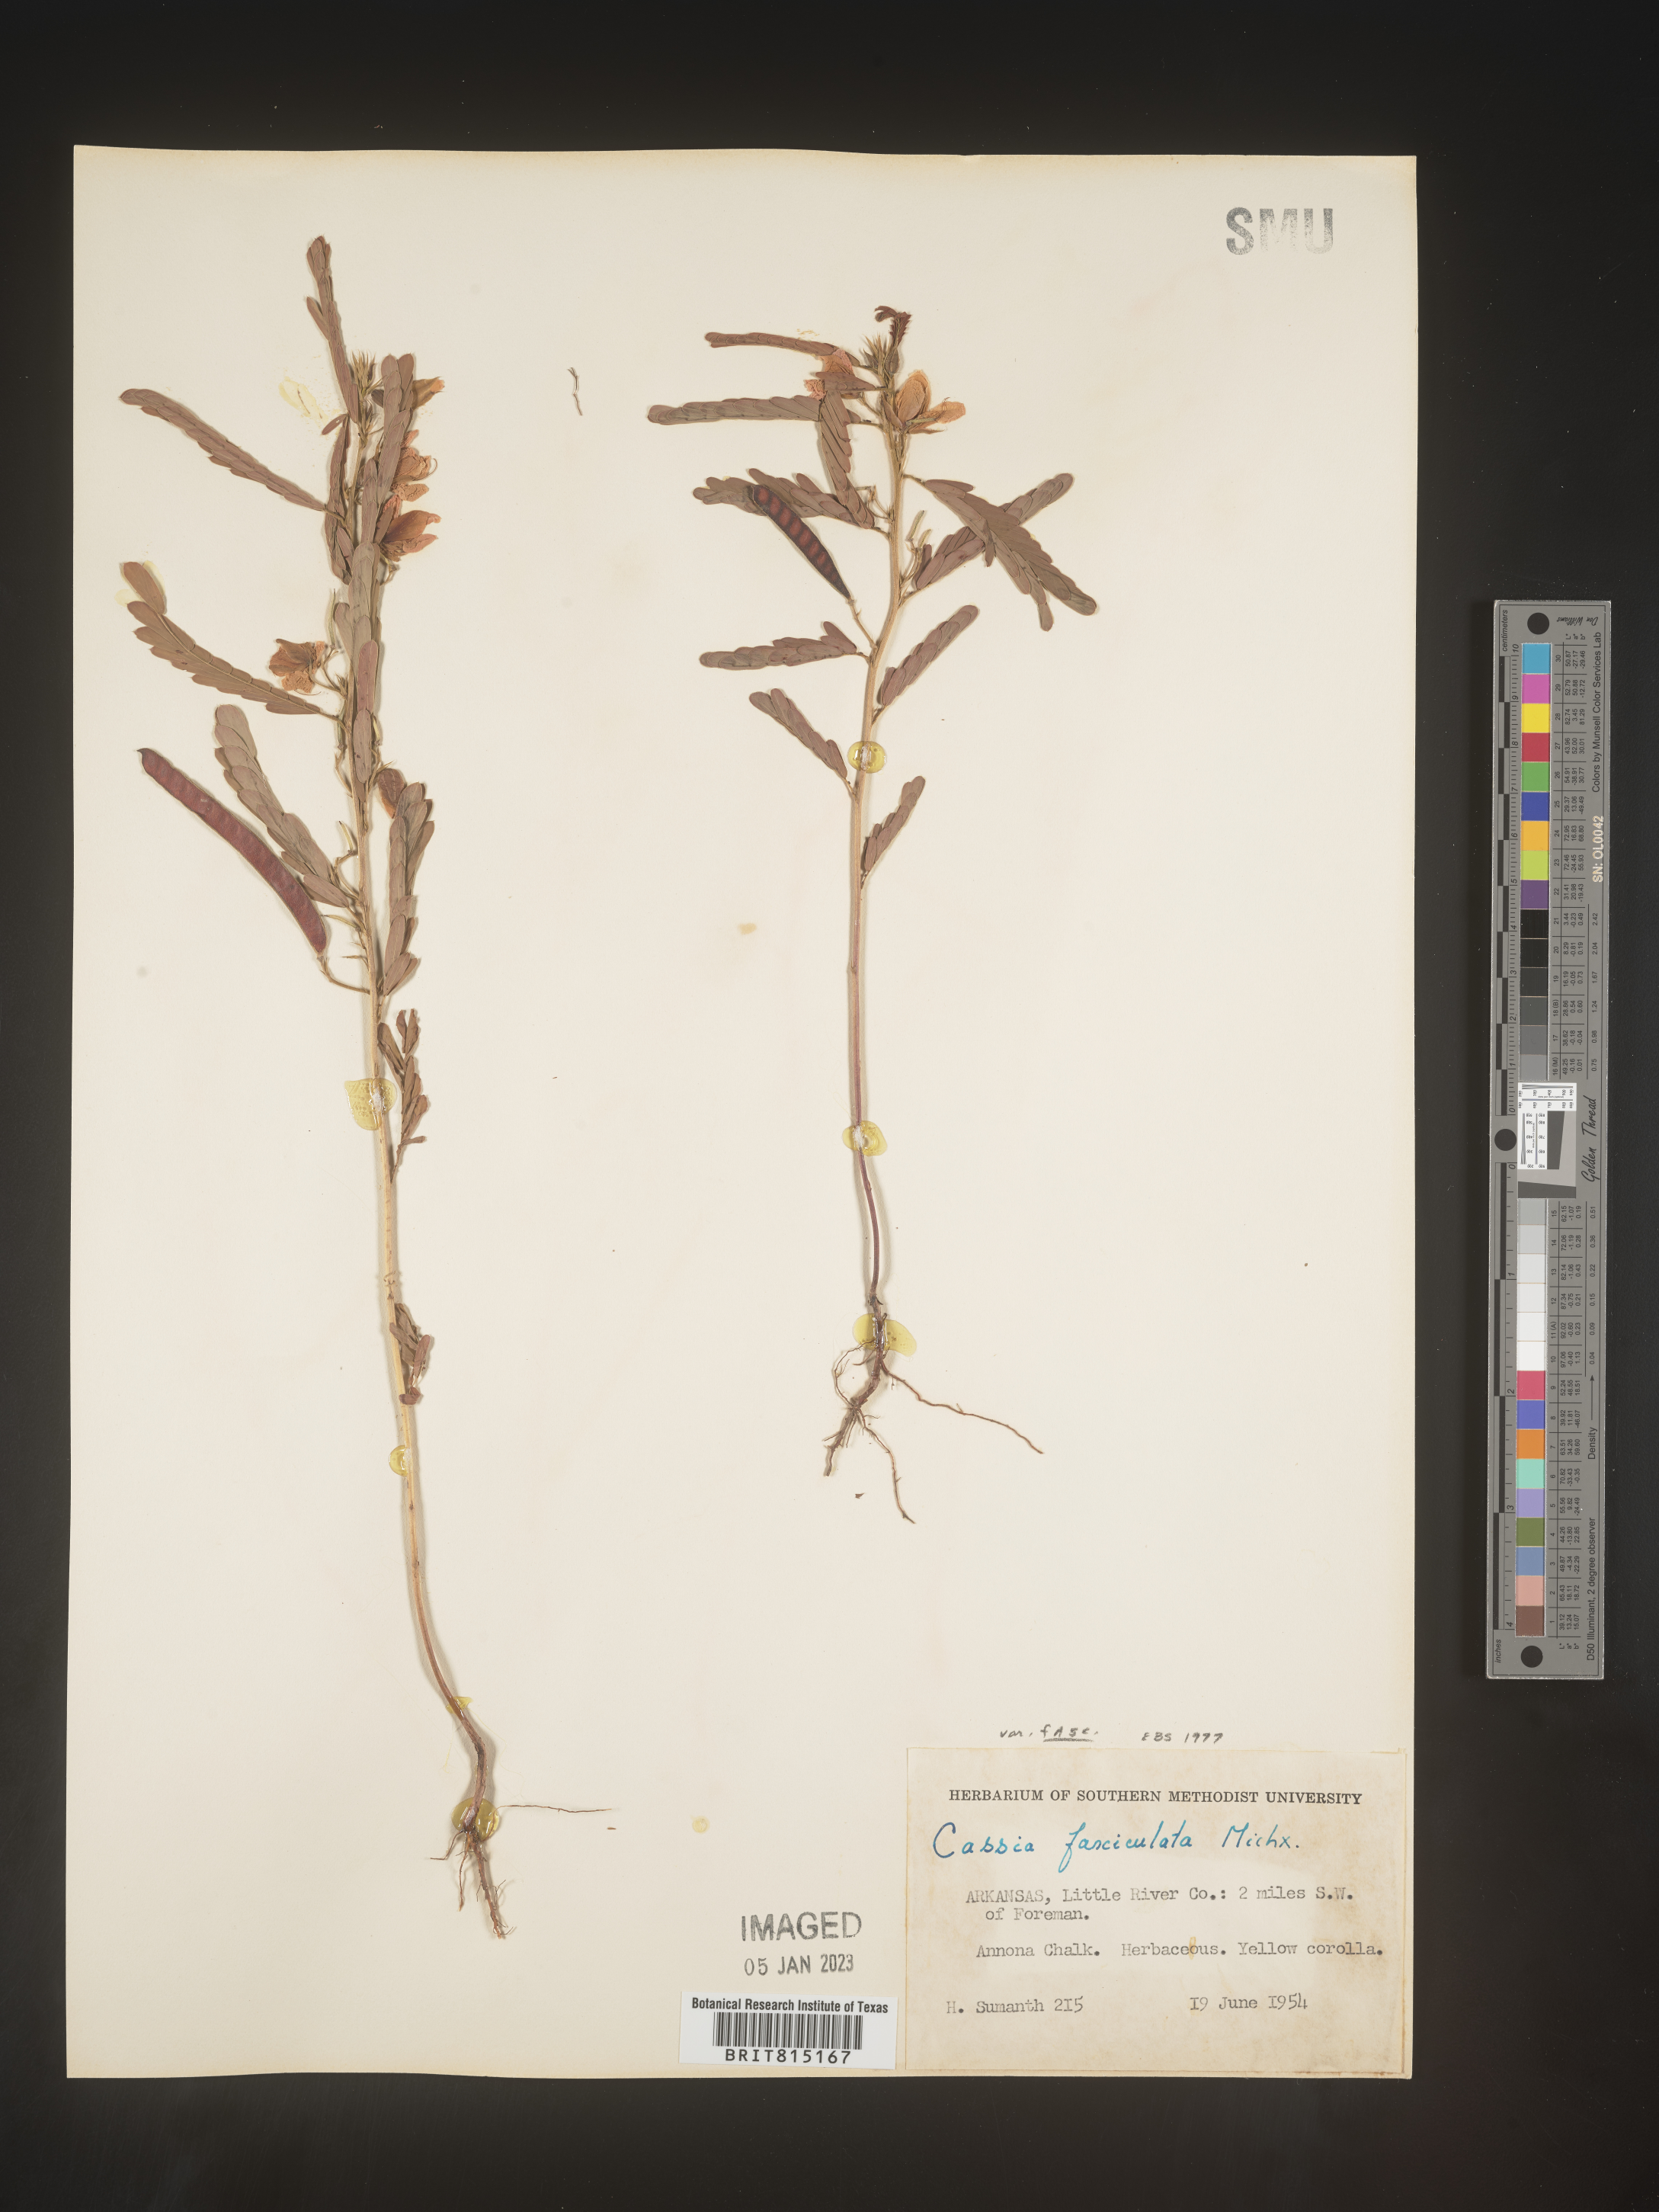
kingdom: Plantae
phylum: Tracheophyta
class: Magnoliopsida
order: Fabales
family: Fabaceae
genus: Chamaecrista
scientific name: Chamaecrista fasciculata
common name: Golden cassia
